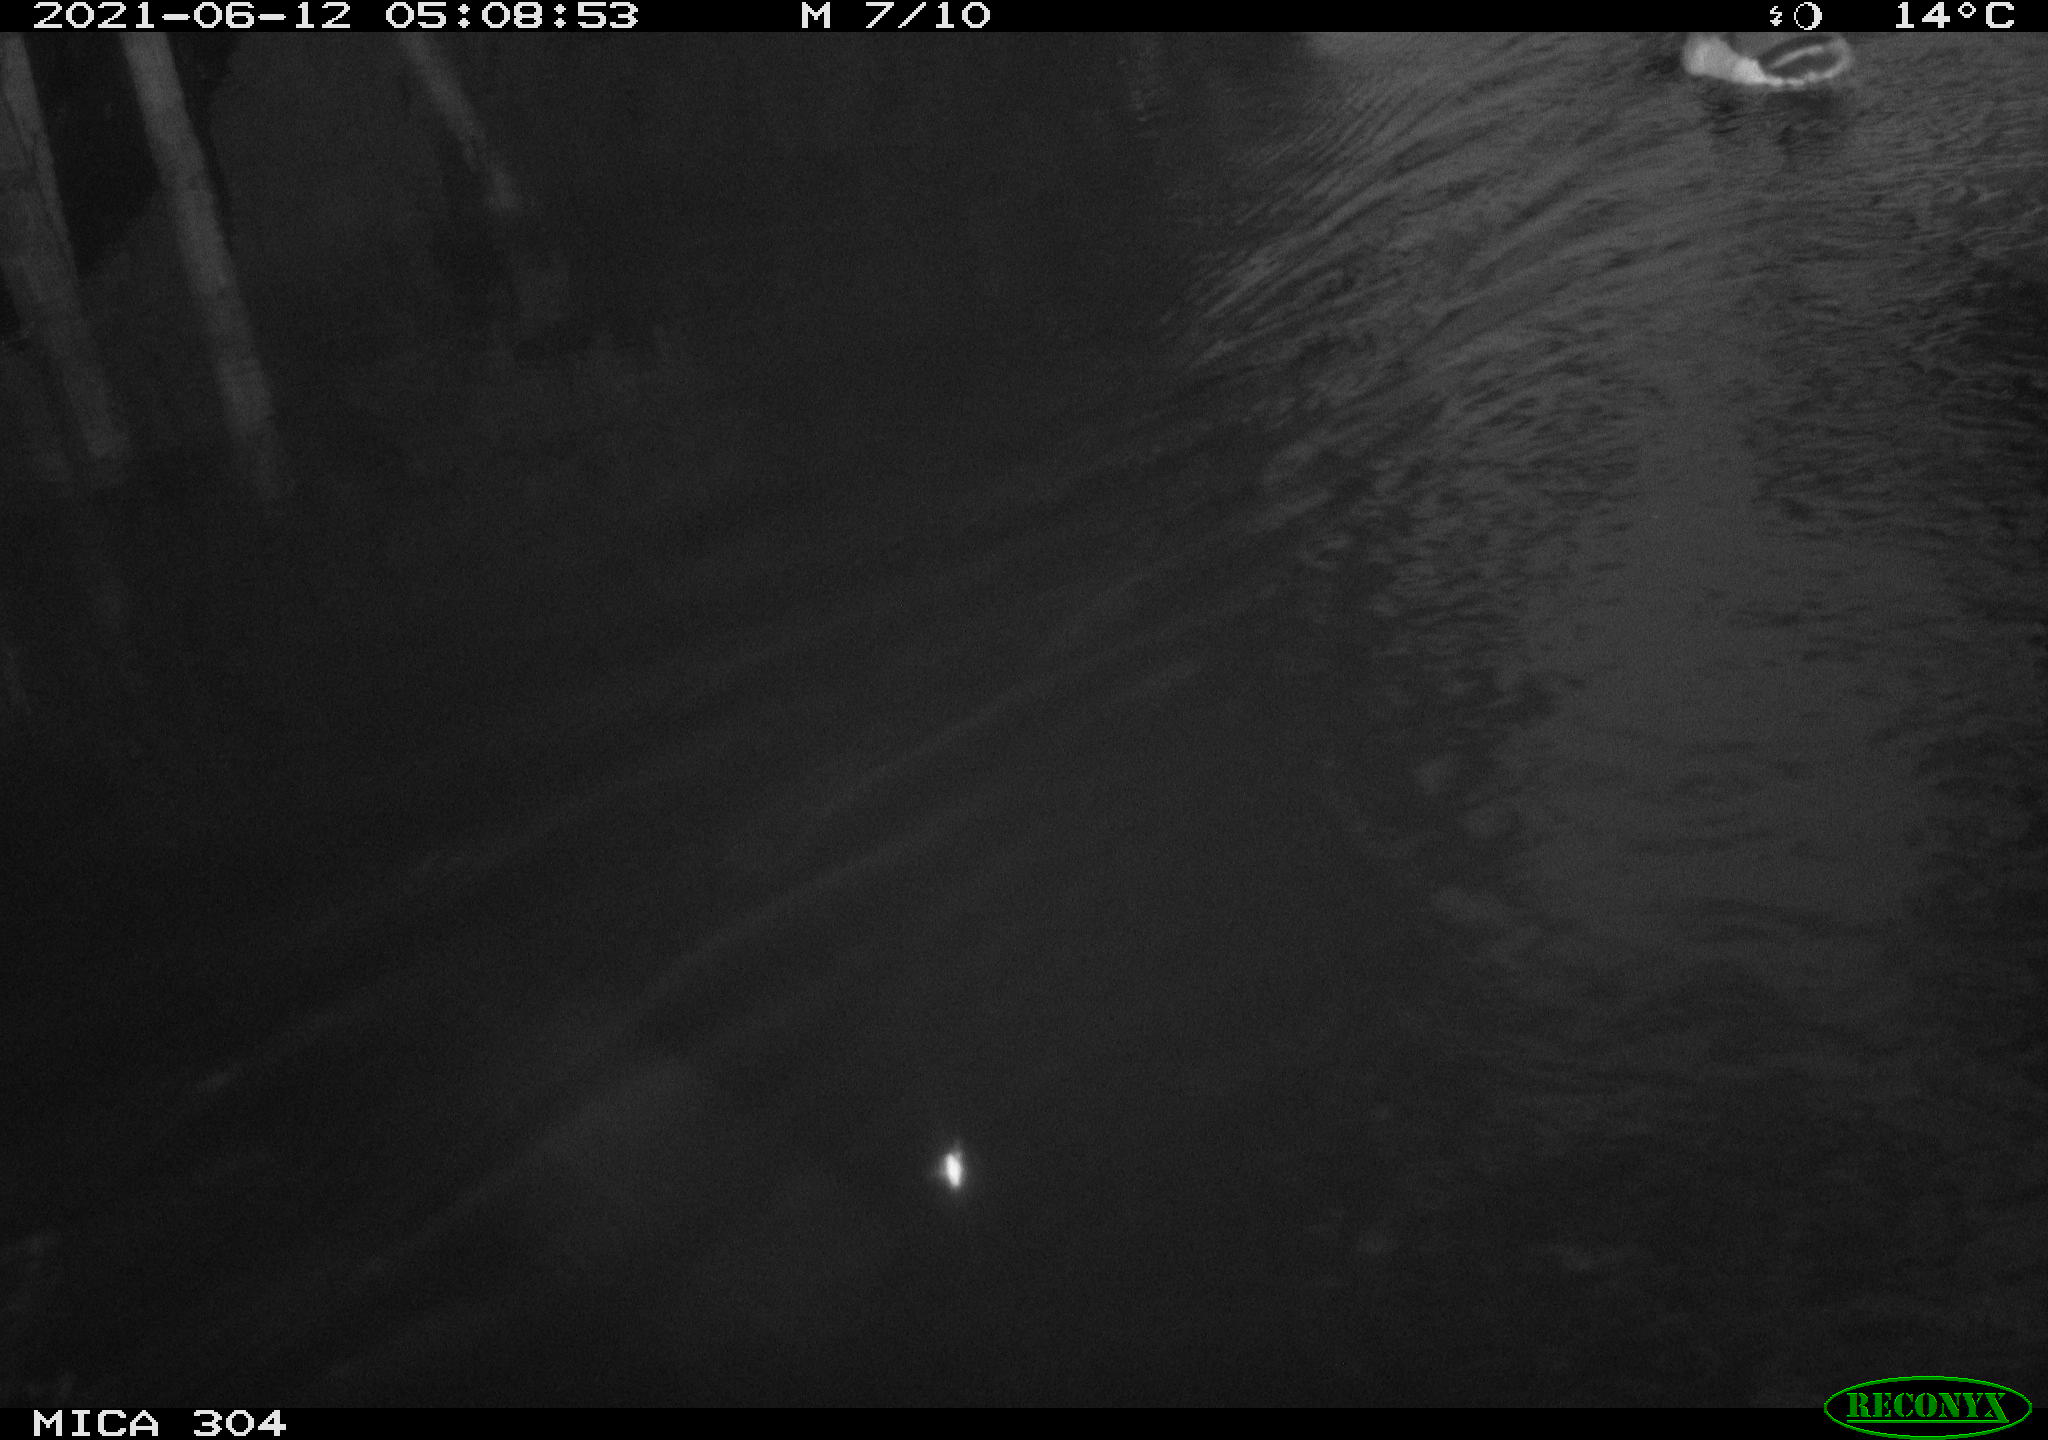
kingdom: Animalia
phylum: Chordata
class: Aves
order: Anseriformes
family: Anatidae
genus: Anas
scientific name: Anas platyrhynchos
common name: Mallard
